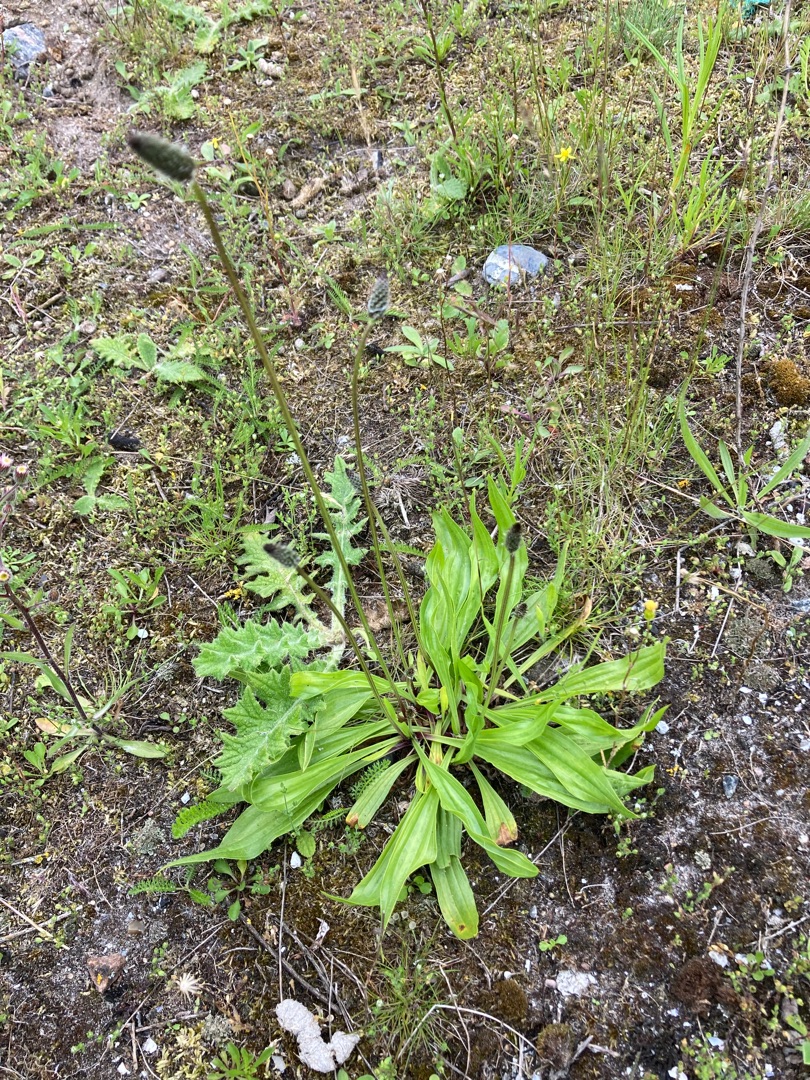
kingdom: Plantae
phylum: Tracheophyta
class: Magnoliopsida
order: Lamiales
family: Plantaginaceae
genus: Plantago
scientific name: Plantago lanceolata
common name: Lancet-vejbred
